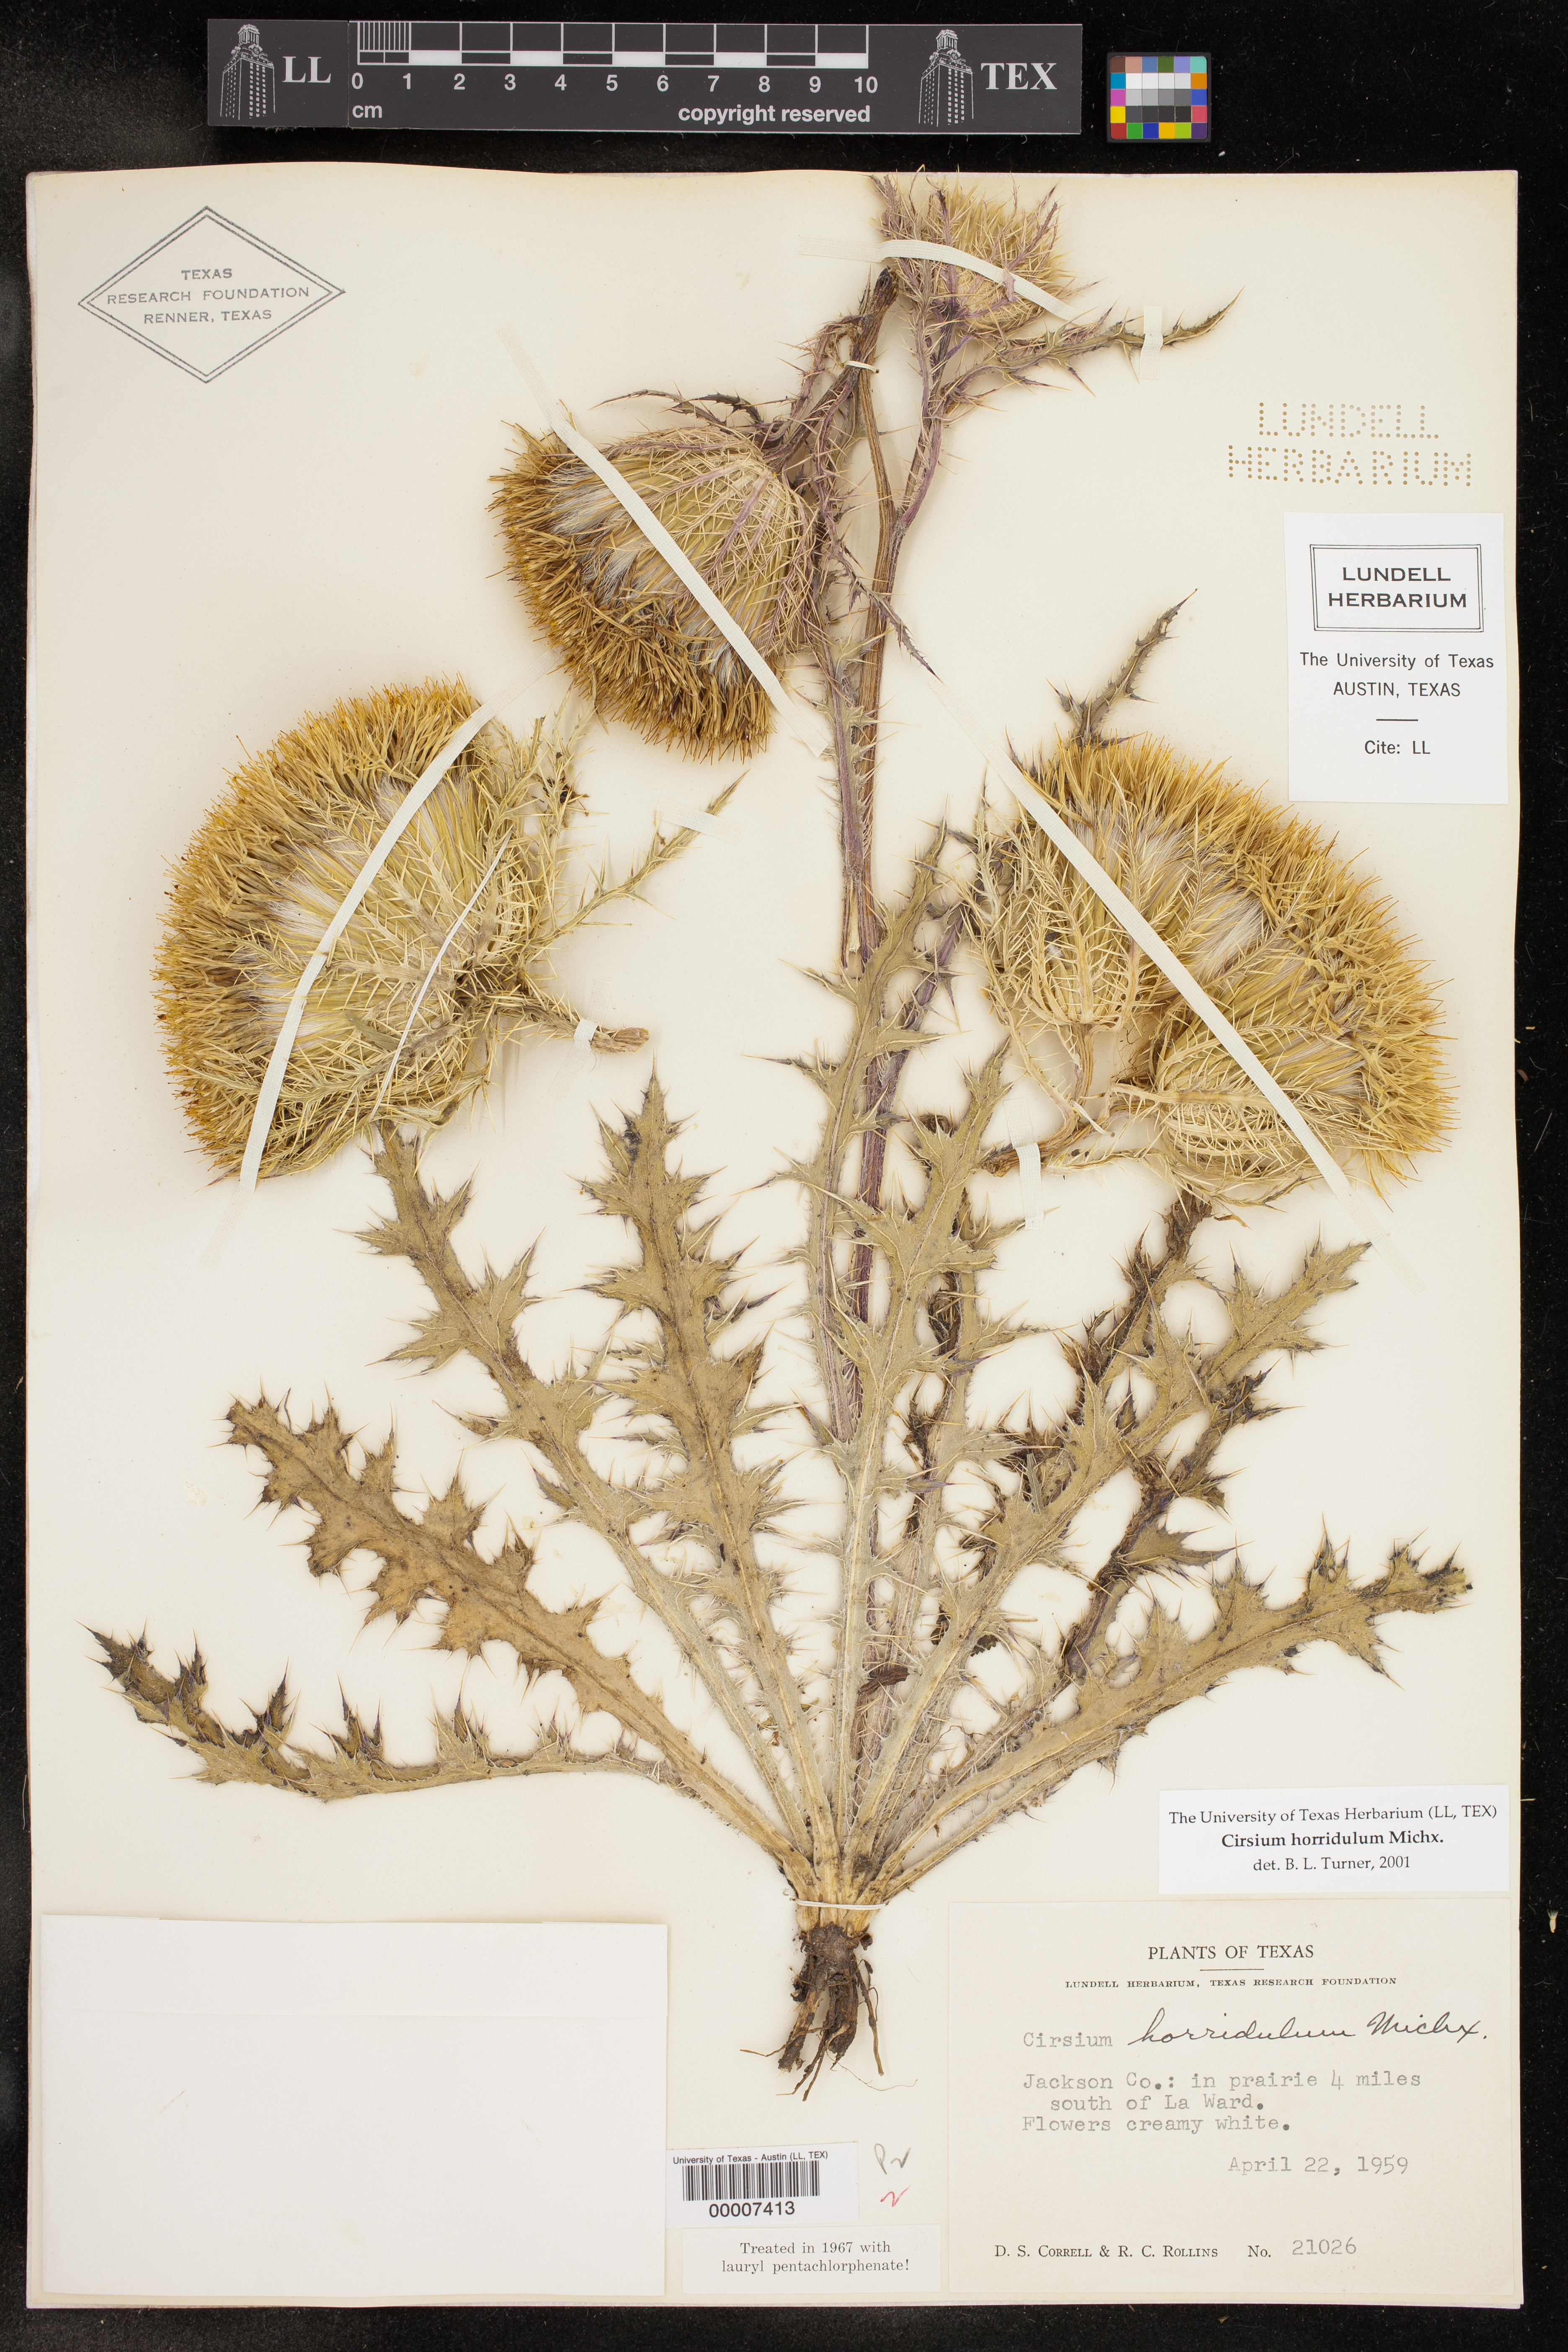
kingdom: Plantae
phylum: Tracheophyta
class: Magnoliopsida
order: Asterales
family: Asteraceae
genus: Cirsium
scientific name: Cirsium horridulum
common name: Bristly thistle
